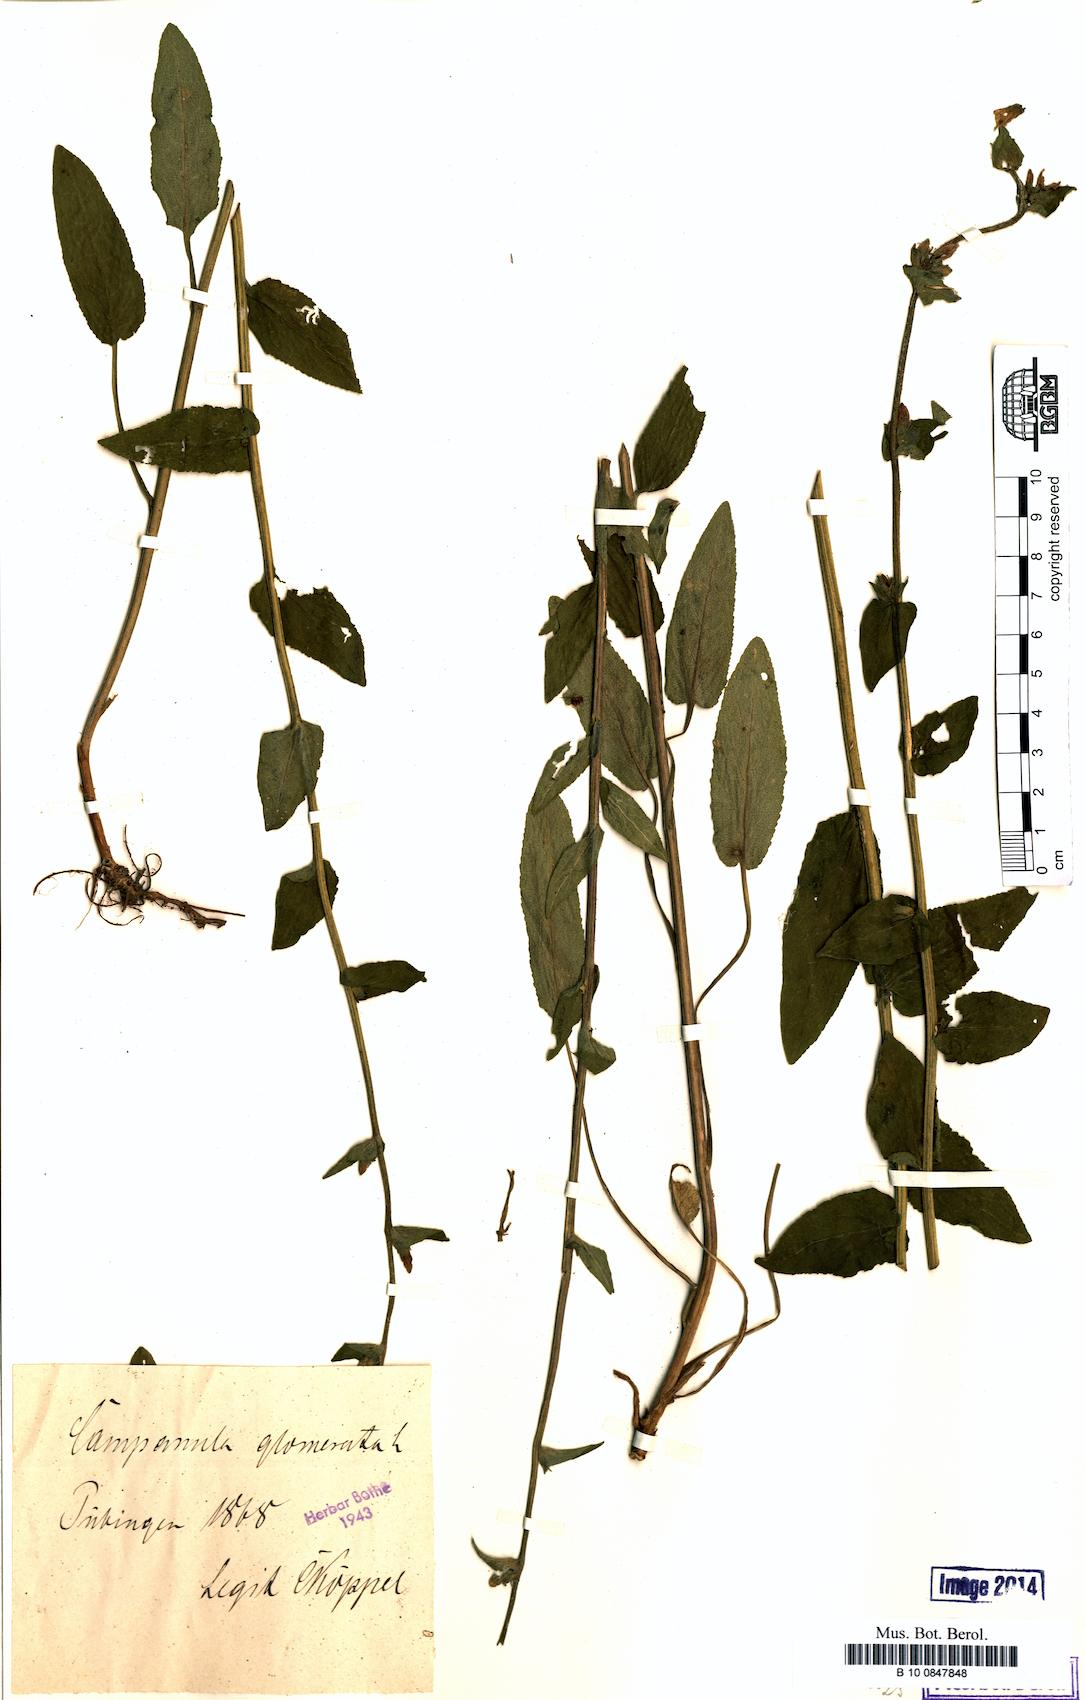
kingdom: Plantae
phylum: Tracheophyta
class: Magnoliopsida
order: Asterales
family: Campanulaceae
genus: Campanula
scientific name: Campanula glomerata
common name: Clustered bellflower
